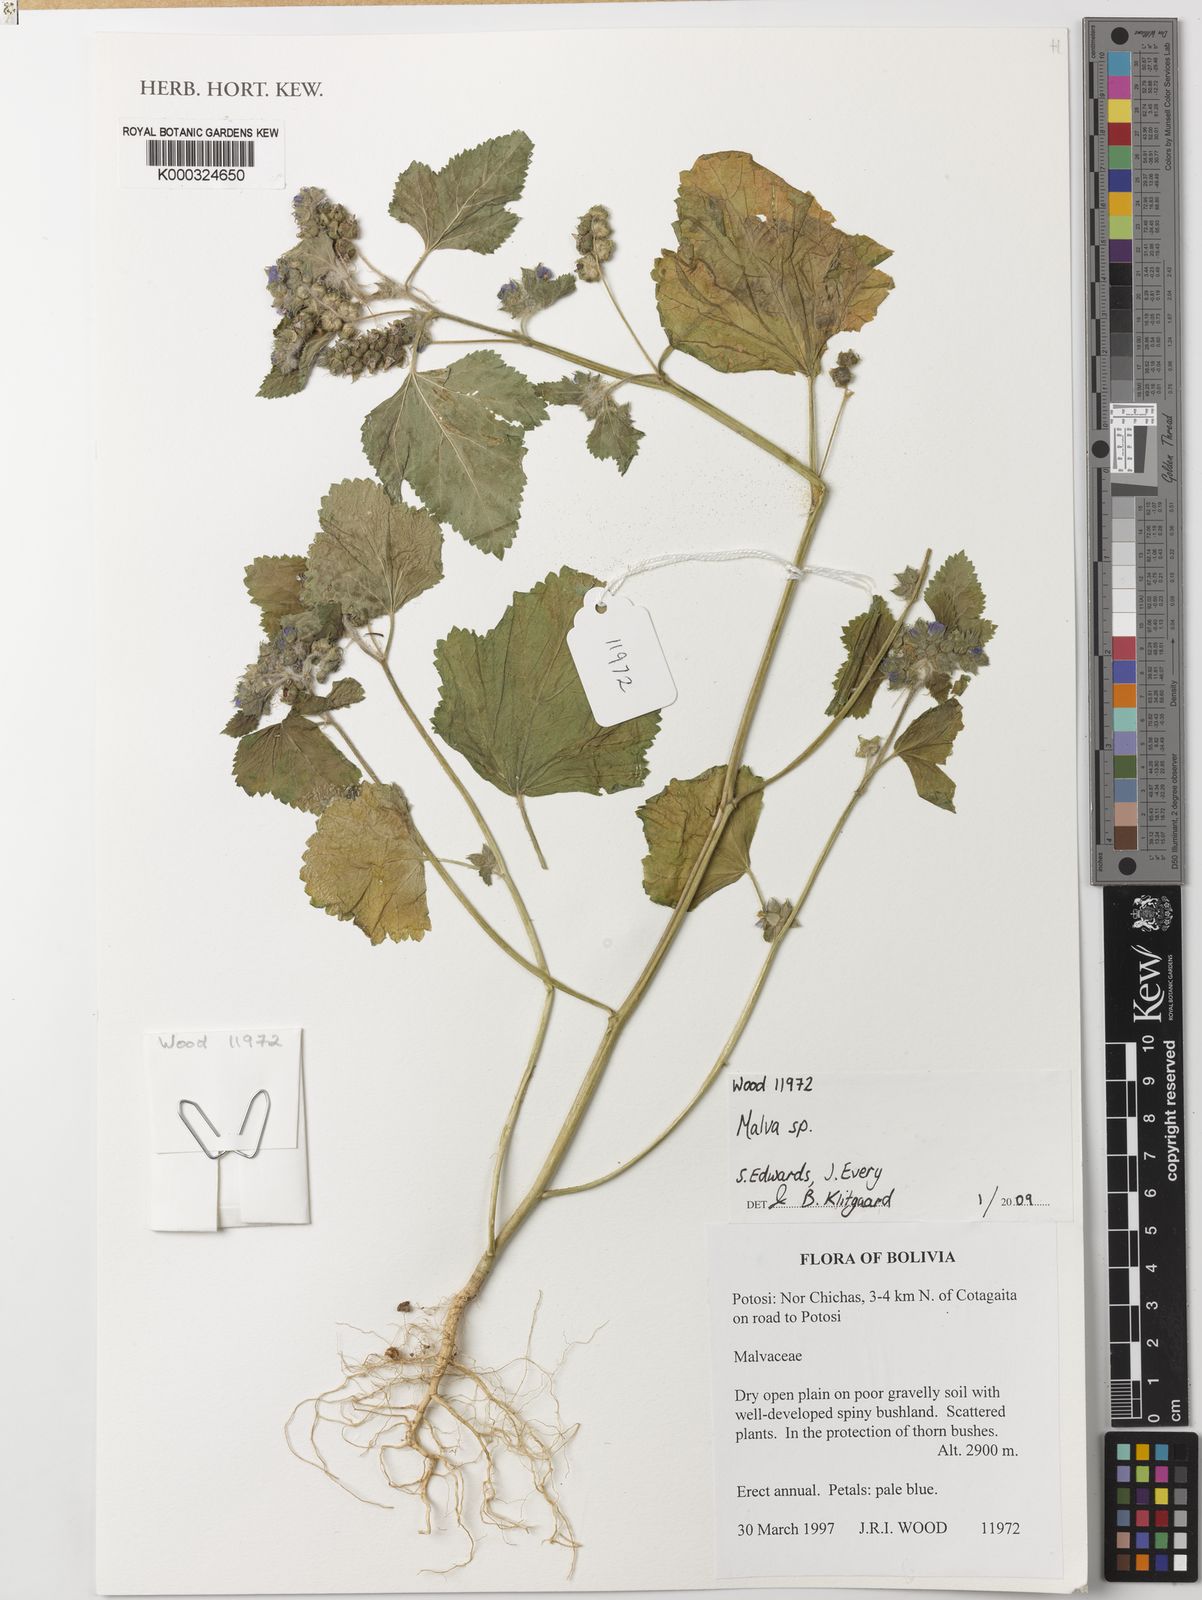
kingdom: Plantae
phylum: Tracheophyta
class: Magnoliopsida
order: Malvales
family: Malvaceae
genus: Malva
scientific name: Malva
